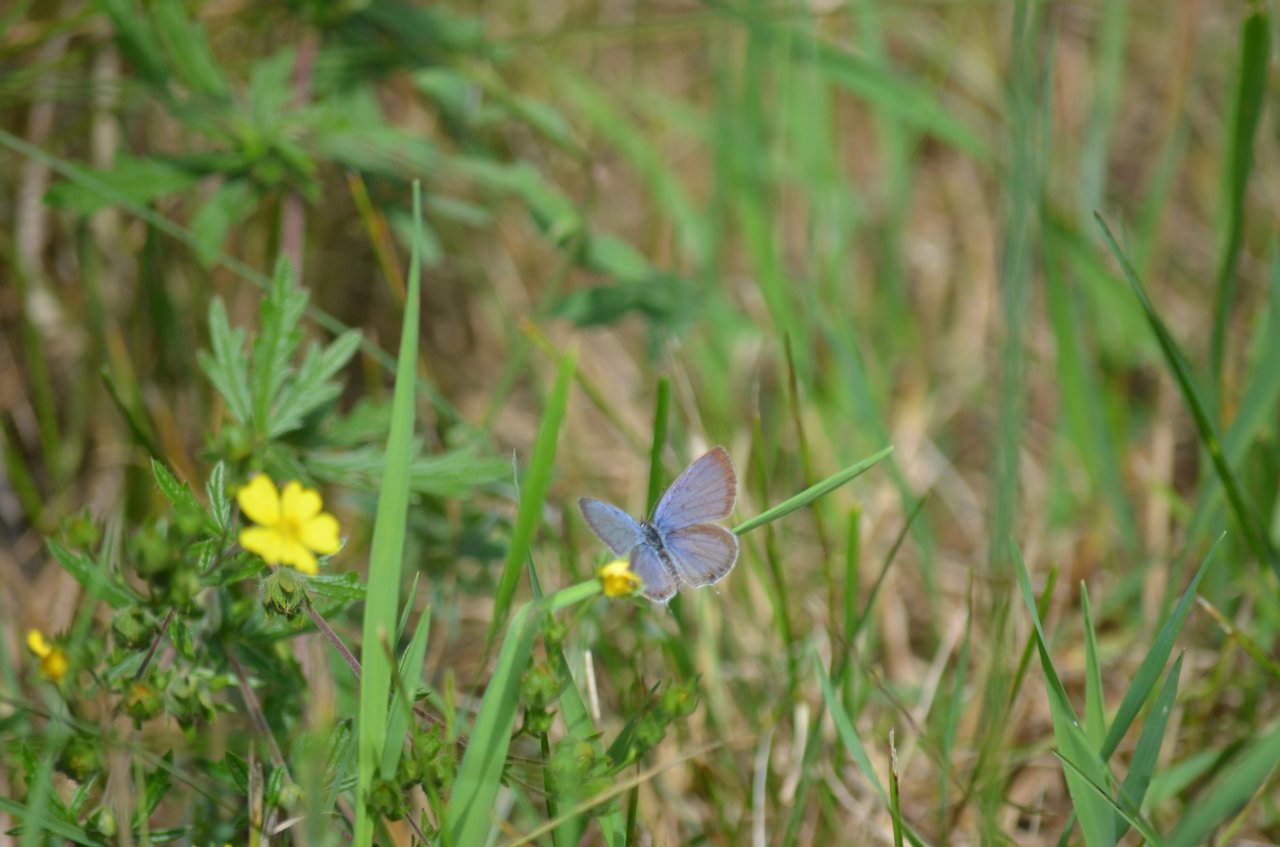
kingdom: Animalia
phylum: Arthropoda
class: Insecta
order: Lepidoptera
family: Lycaenidae
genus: Elkalyce
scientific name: Elkalyce comyntas
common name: Eastern Tailed-Blue
